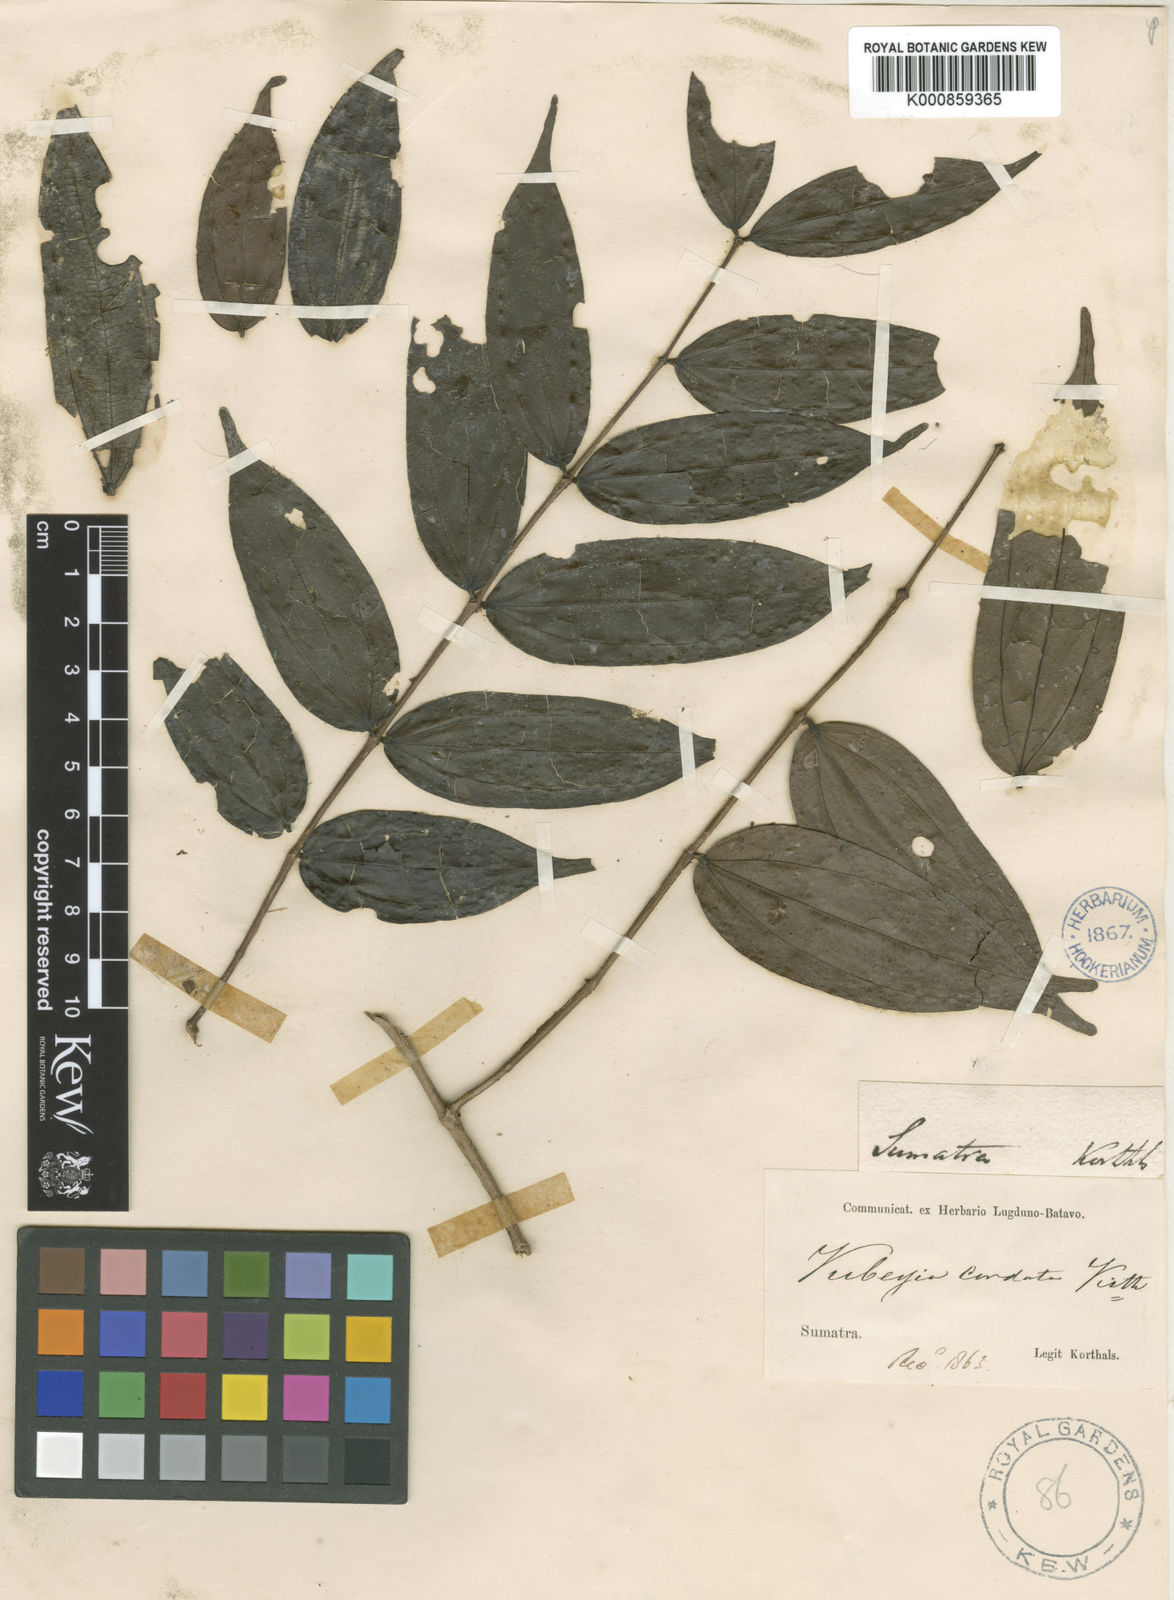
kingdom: Plantae
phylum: Tracheophyta
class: Magnoliopsida
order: Myrtales
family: Melastomataceae
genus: Pternandra
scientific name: Pternandra azurea
